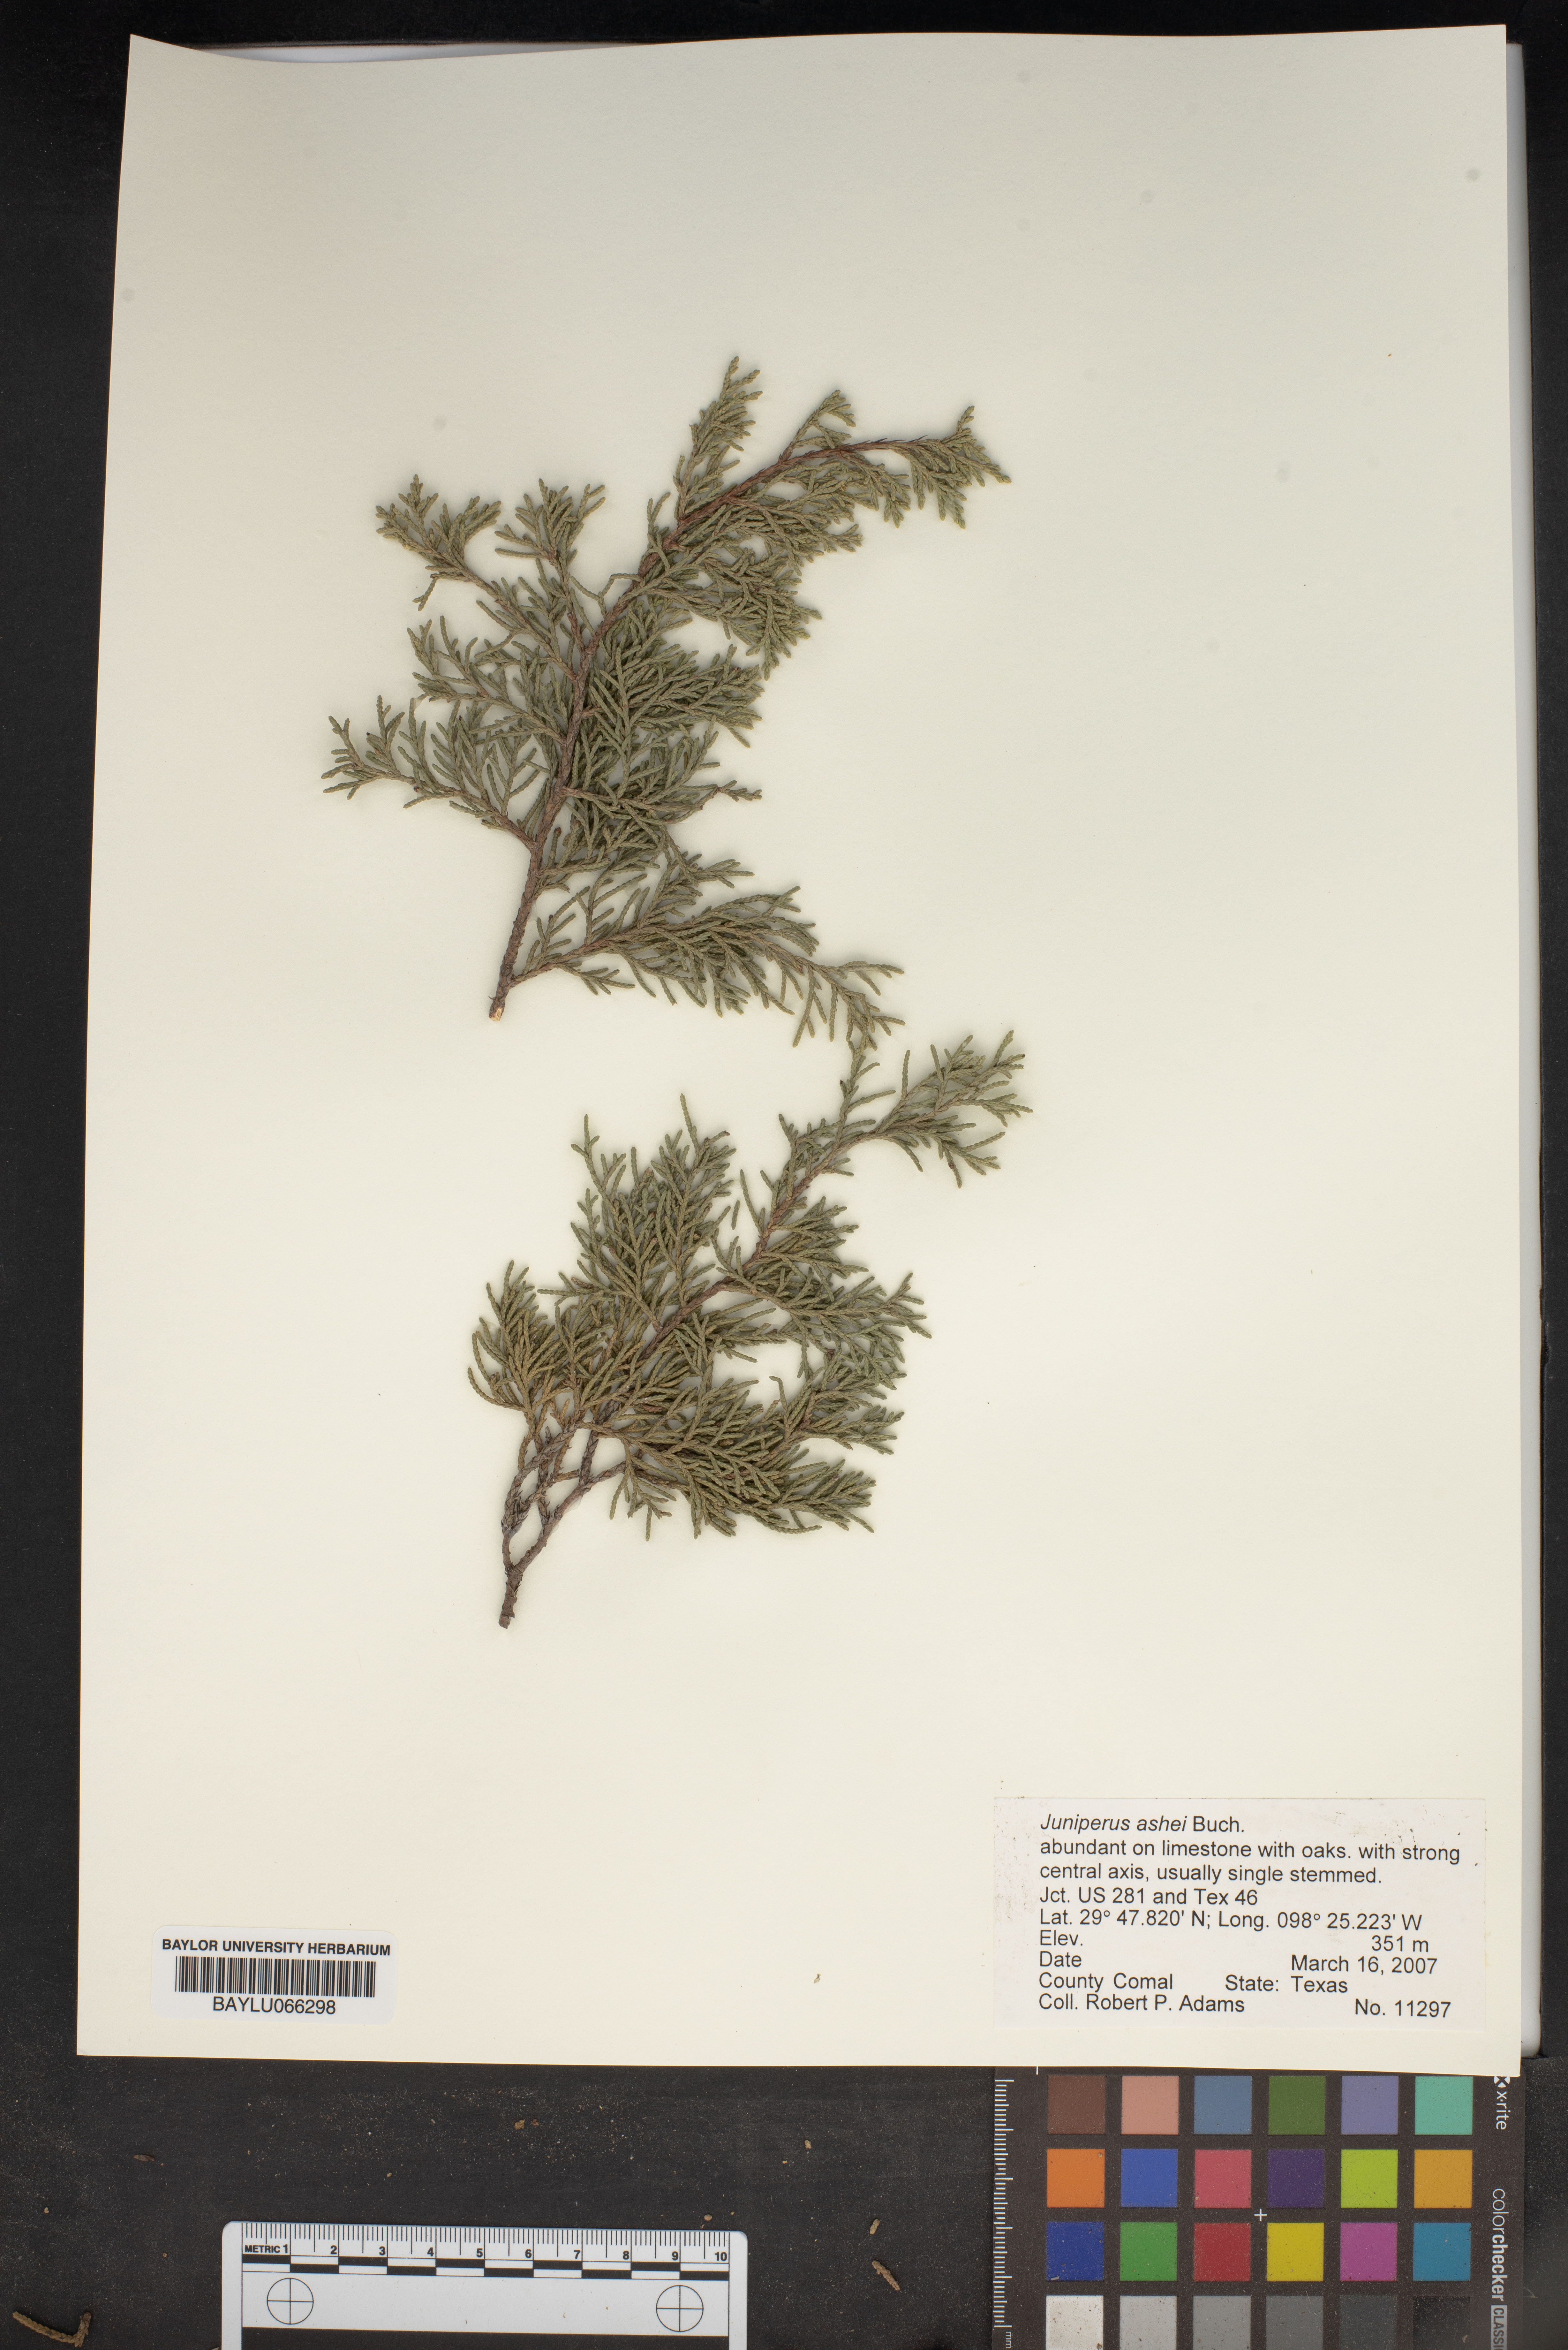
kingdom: Plantae
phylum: Tracheophyta
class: Pinopsida
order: Pinales
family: Cupressaceae
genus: Juniperus
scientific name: Juniperus ashei
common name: Mexican juniper
